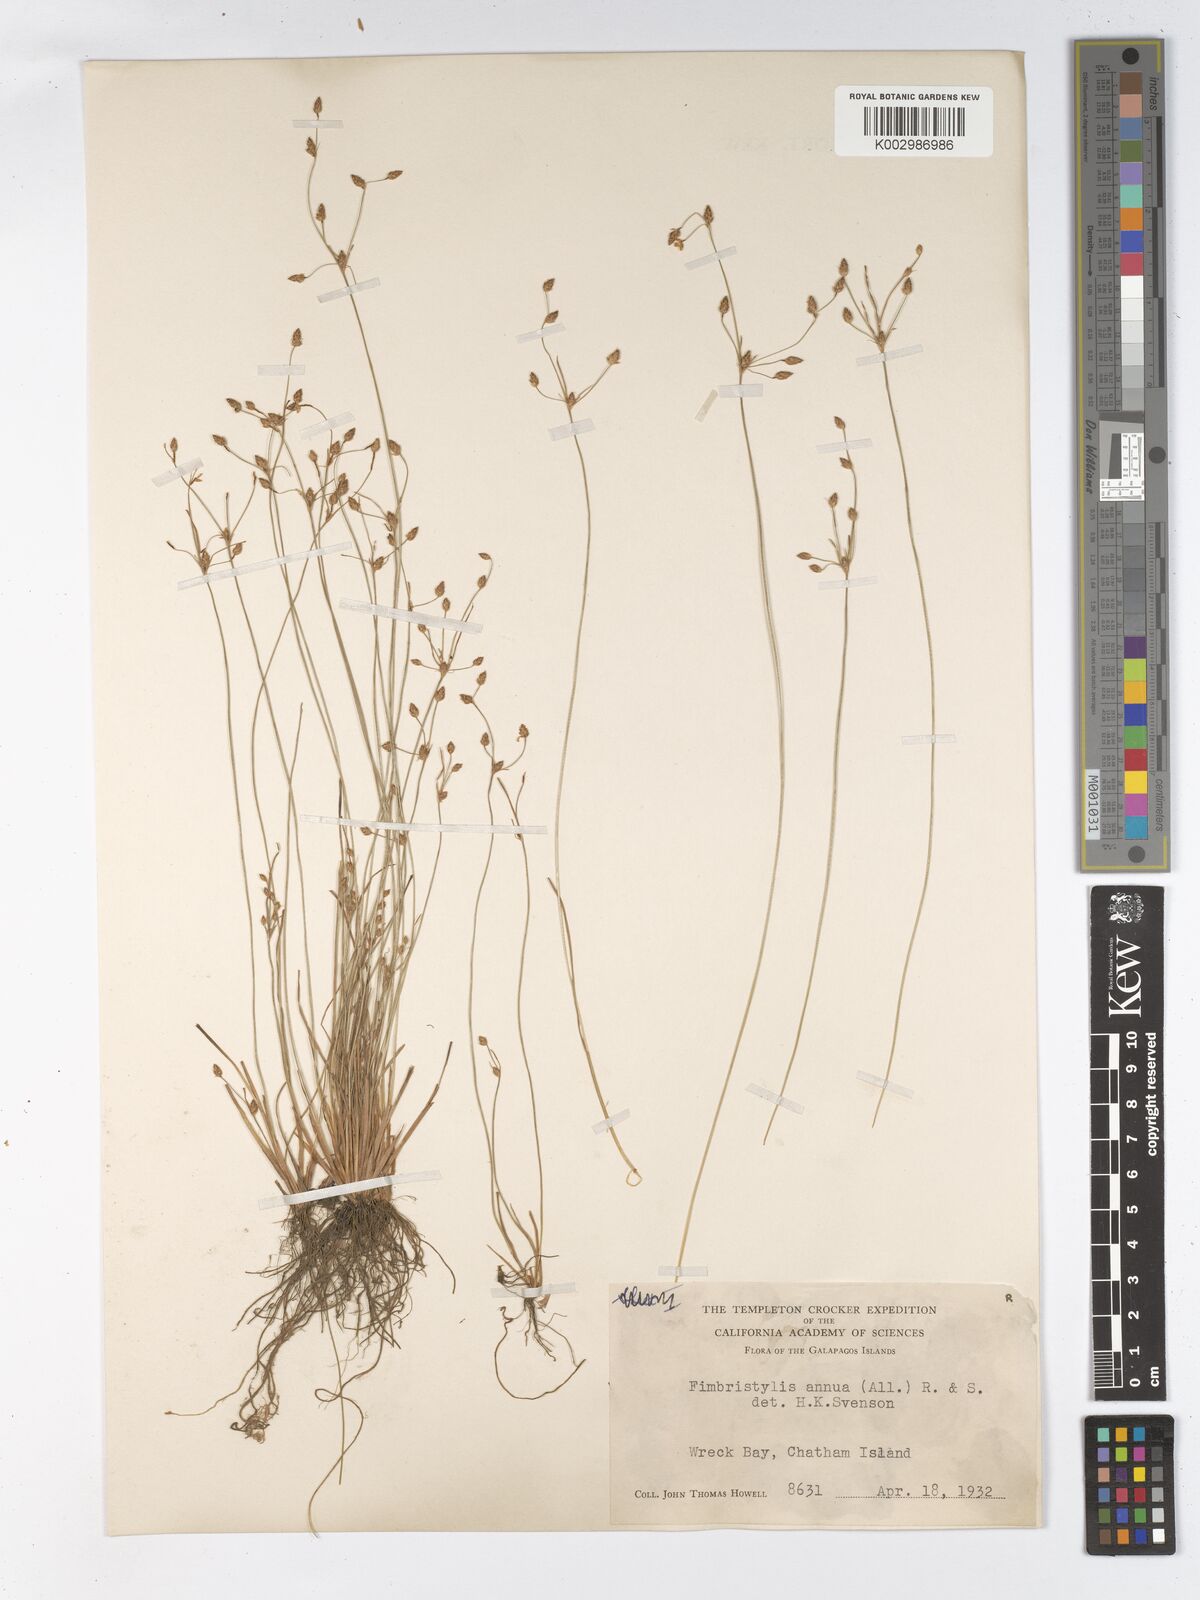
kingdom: Plantae
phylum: Tracheophyta
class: Liliopsida
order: Poales
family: Cyperaceae
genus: Fimbristylis
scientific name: Fimbristylis dichotoma
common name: Forked fimbry
